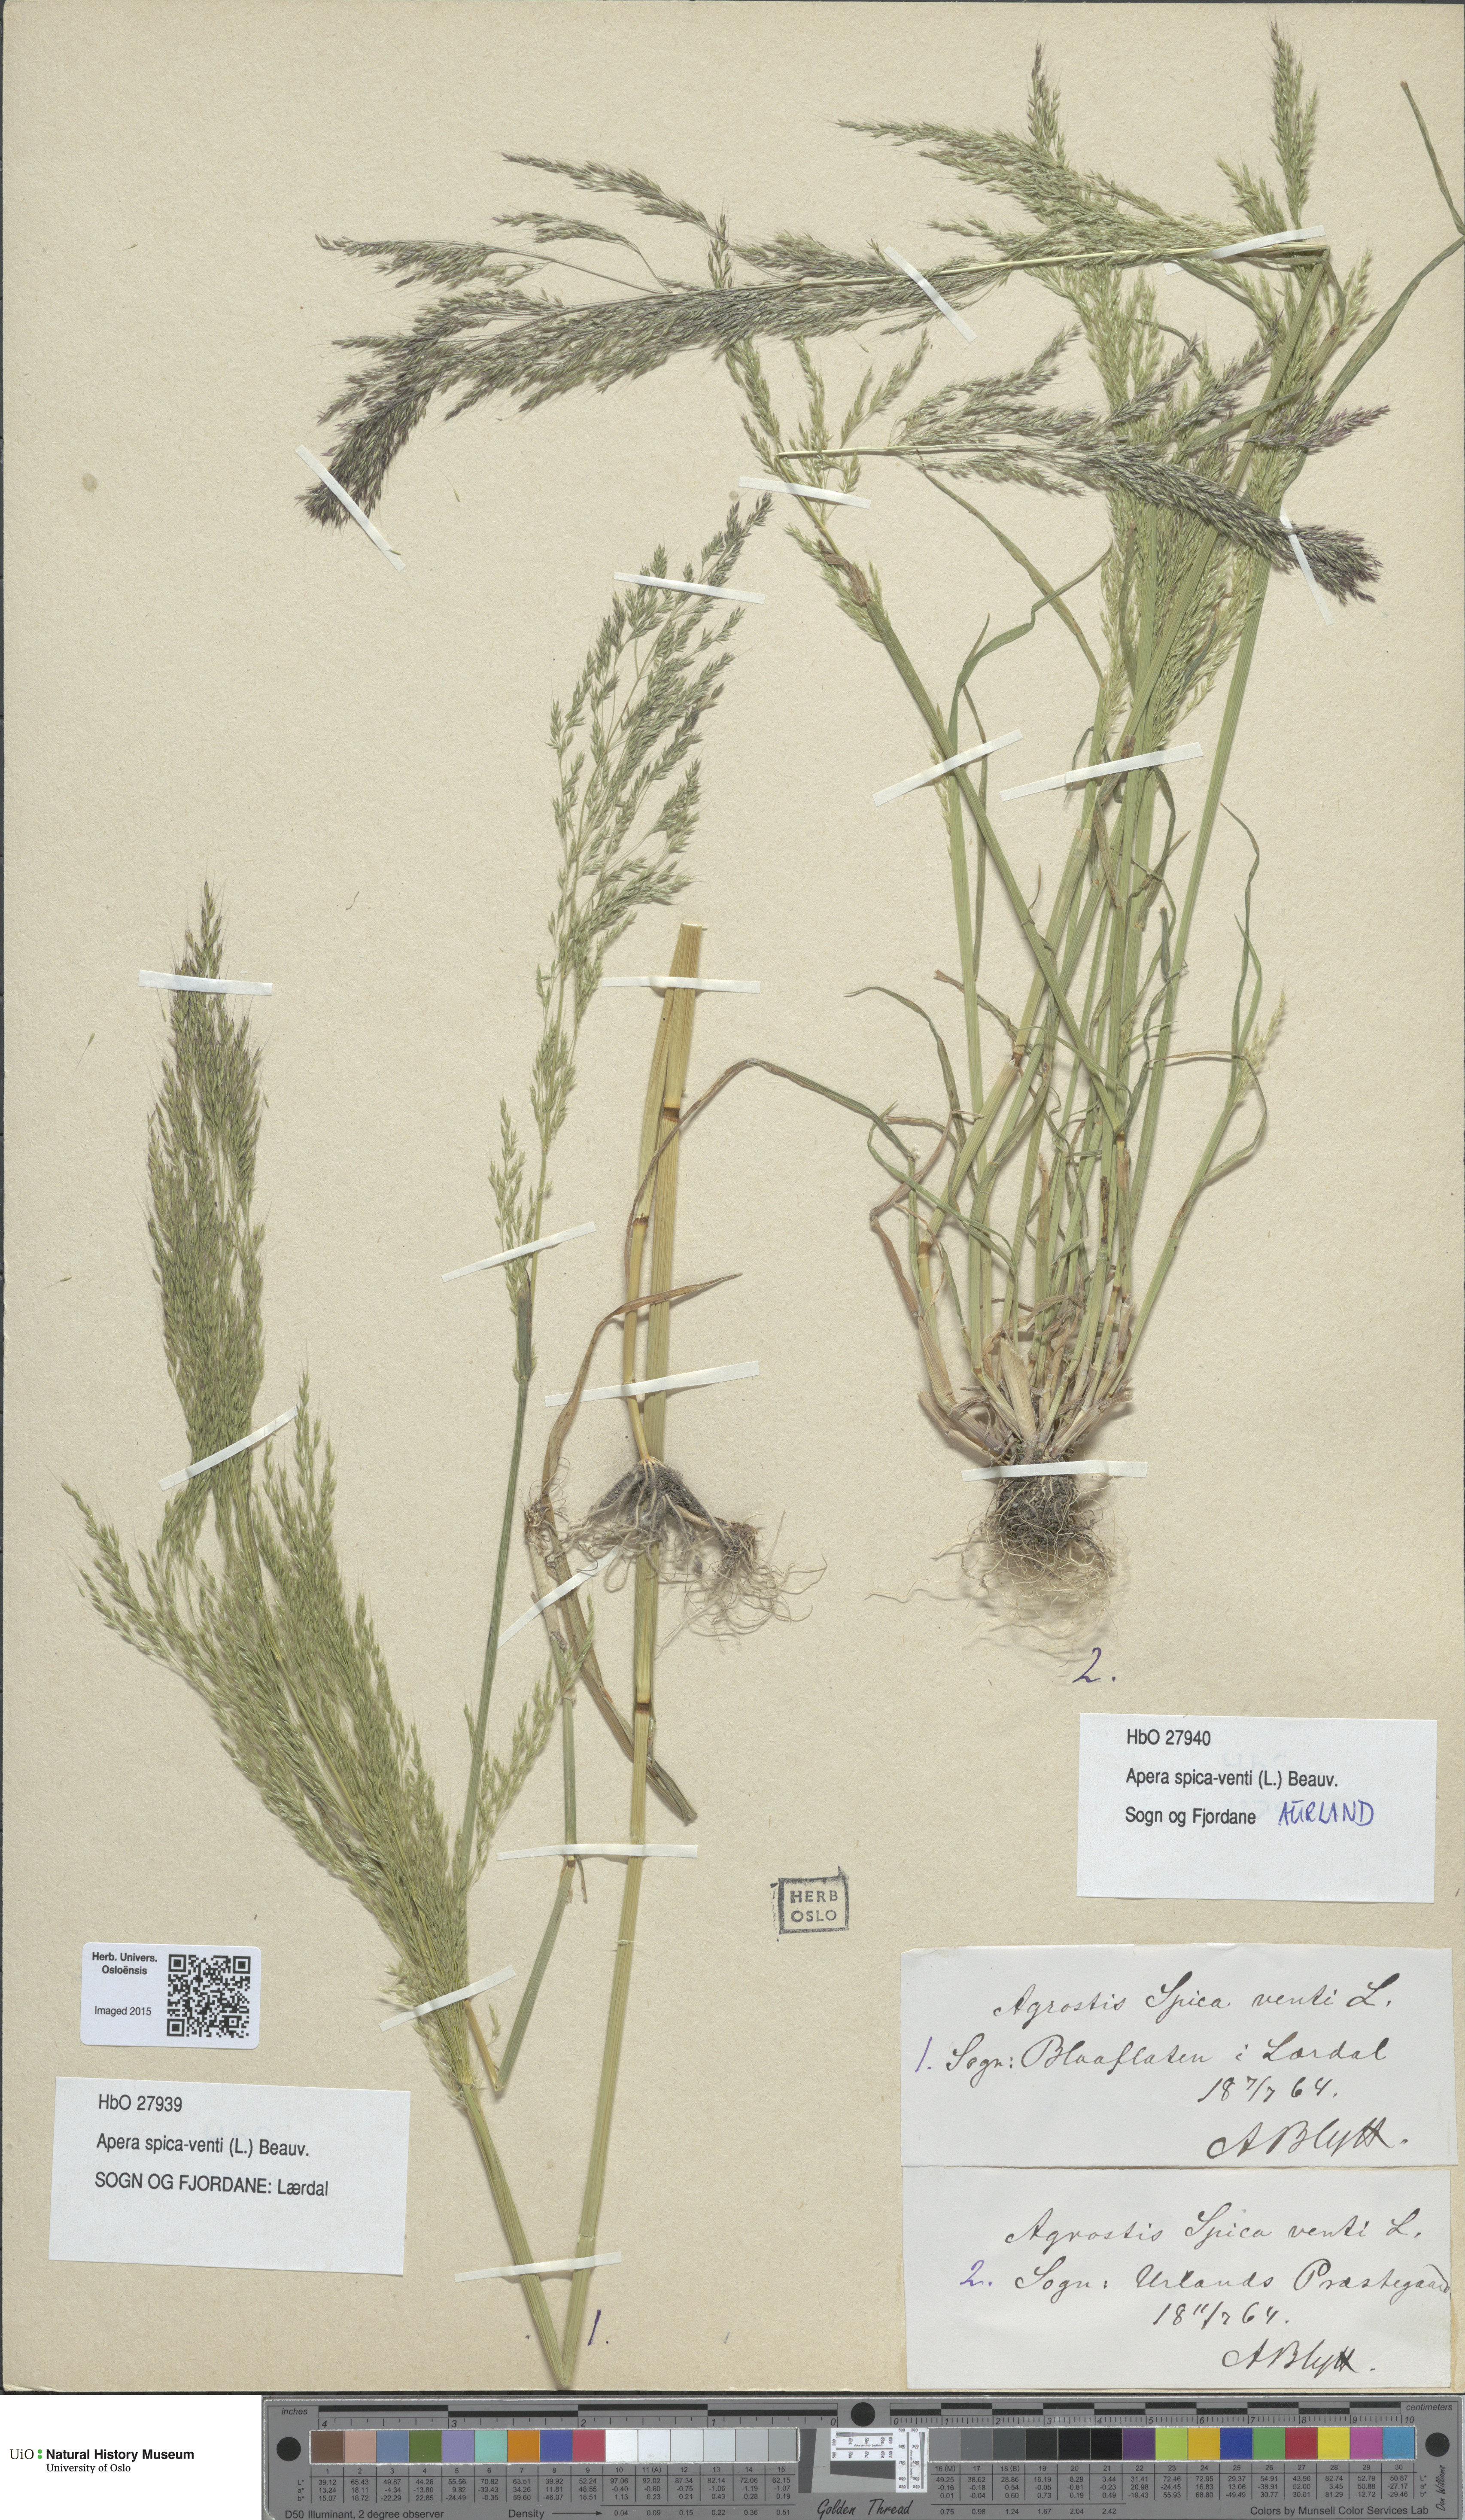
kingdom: Plantae
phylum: Tracheophyta
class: Liliopsida
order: Poales
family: Poaceae
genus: Apera
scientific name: Apera spica-venti
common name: Loose silky-bent
